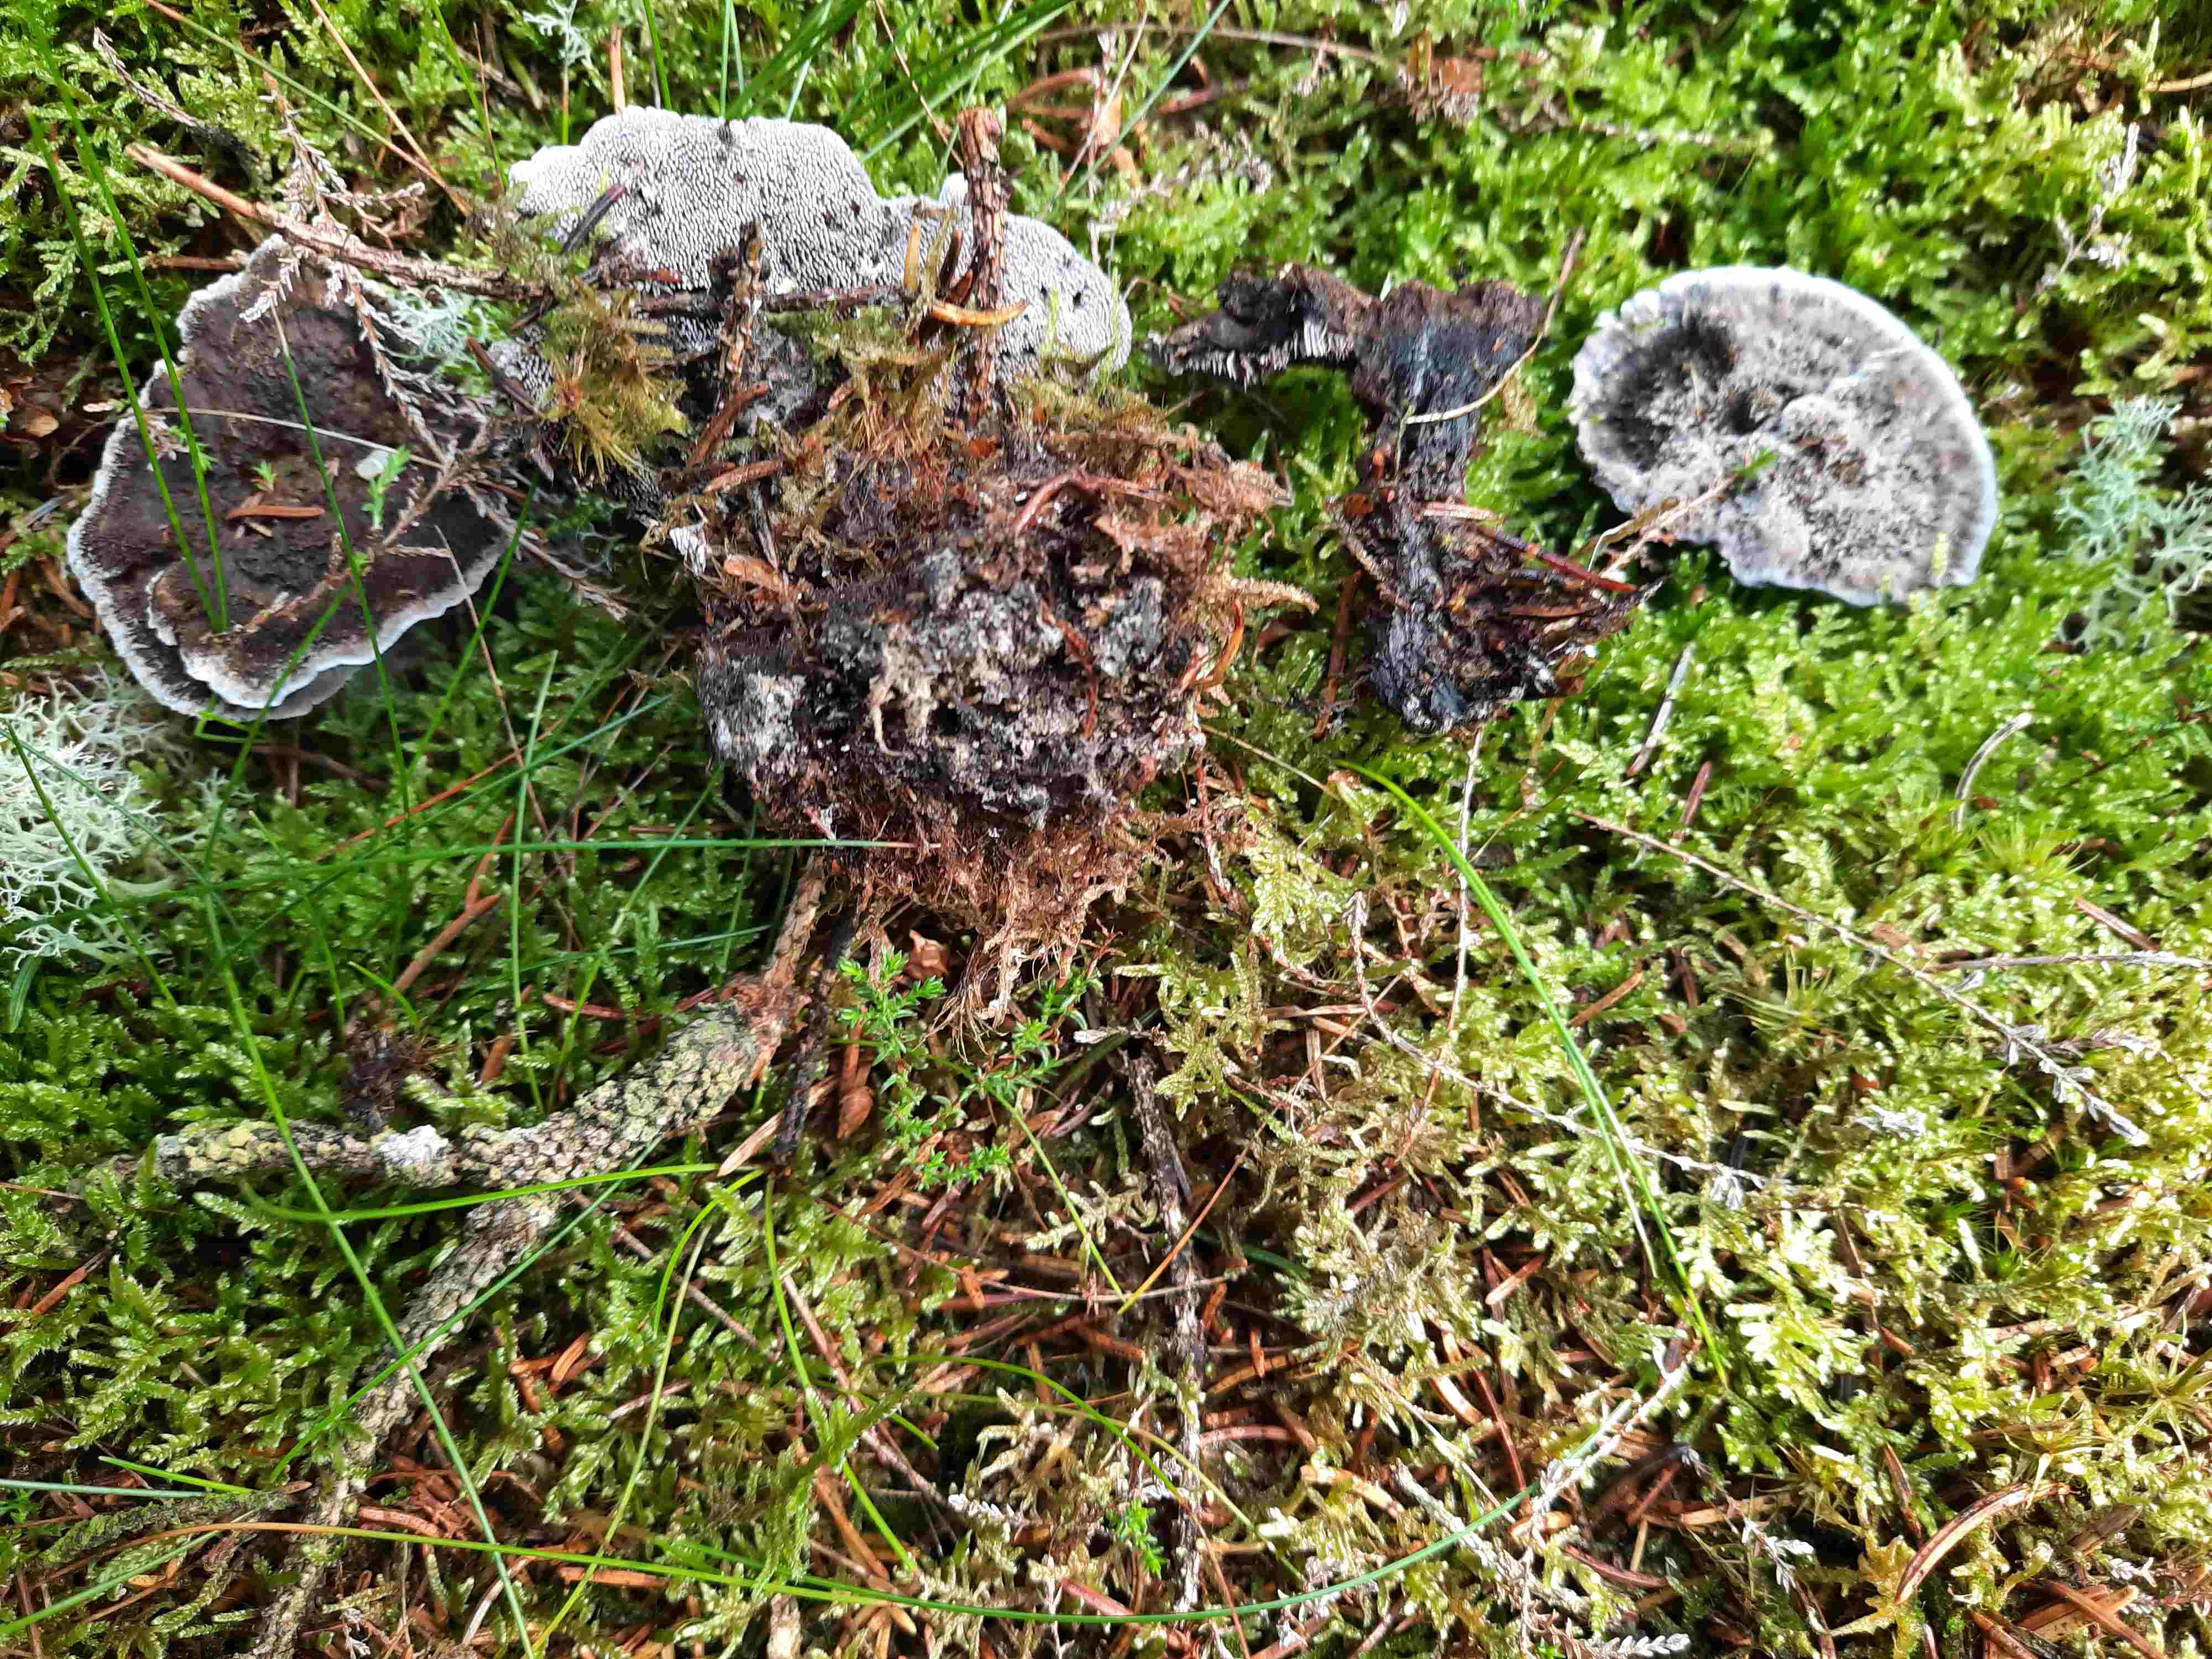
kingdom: Fungi
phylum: Basidiomycota
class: Agaricomycetes
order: Thelephorales
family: Thelephoraceae
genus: Phellodon
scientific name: Phellodon
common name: mørk duftpigsvamp
